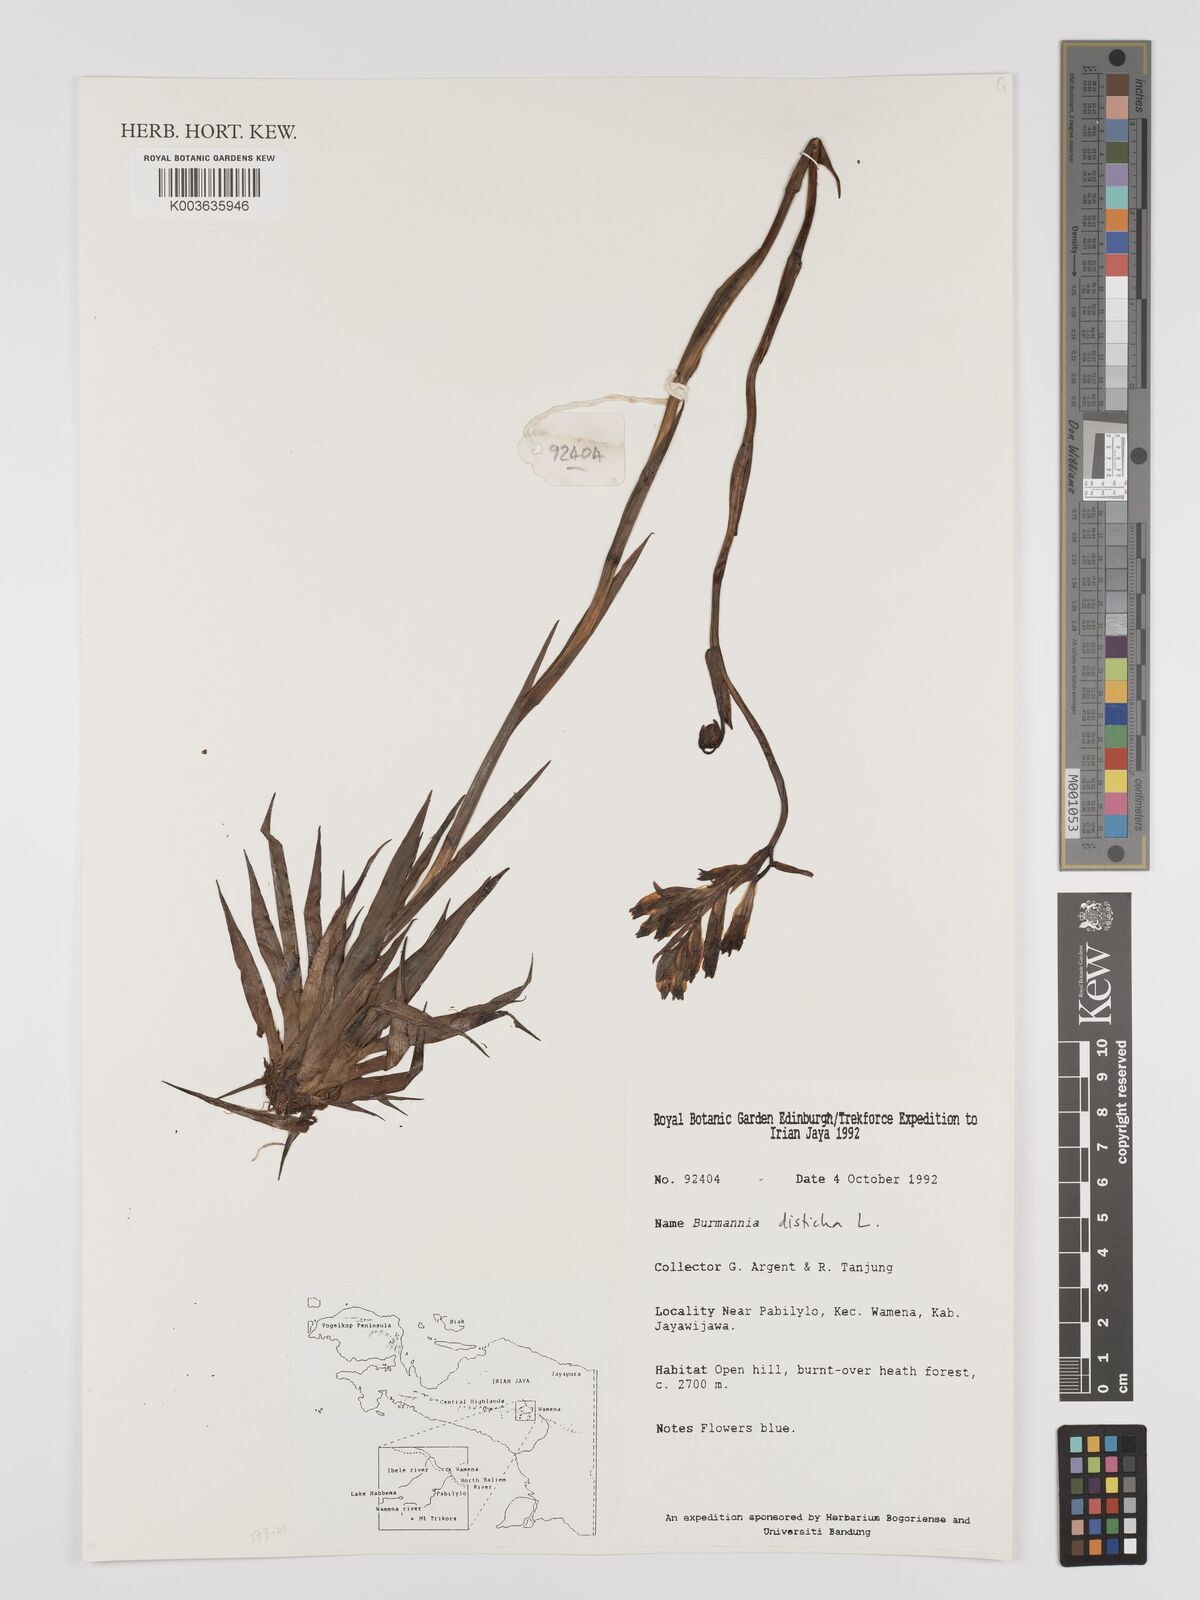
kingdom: Plantae
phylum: Tracheophyta
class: Liliopsida
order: Dioscoreales
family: Burmanniaceae
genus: Burmannia
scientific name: Burmannia disticha
